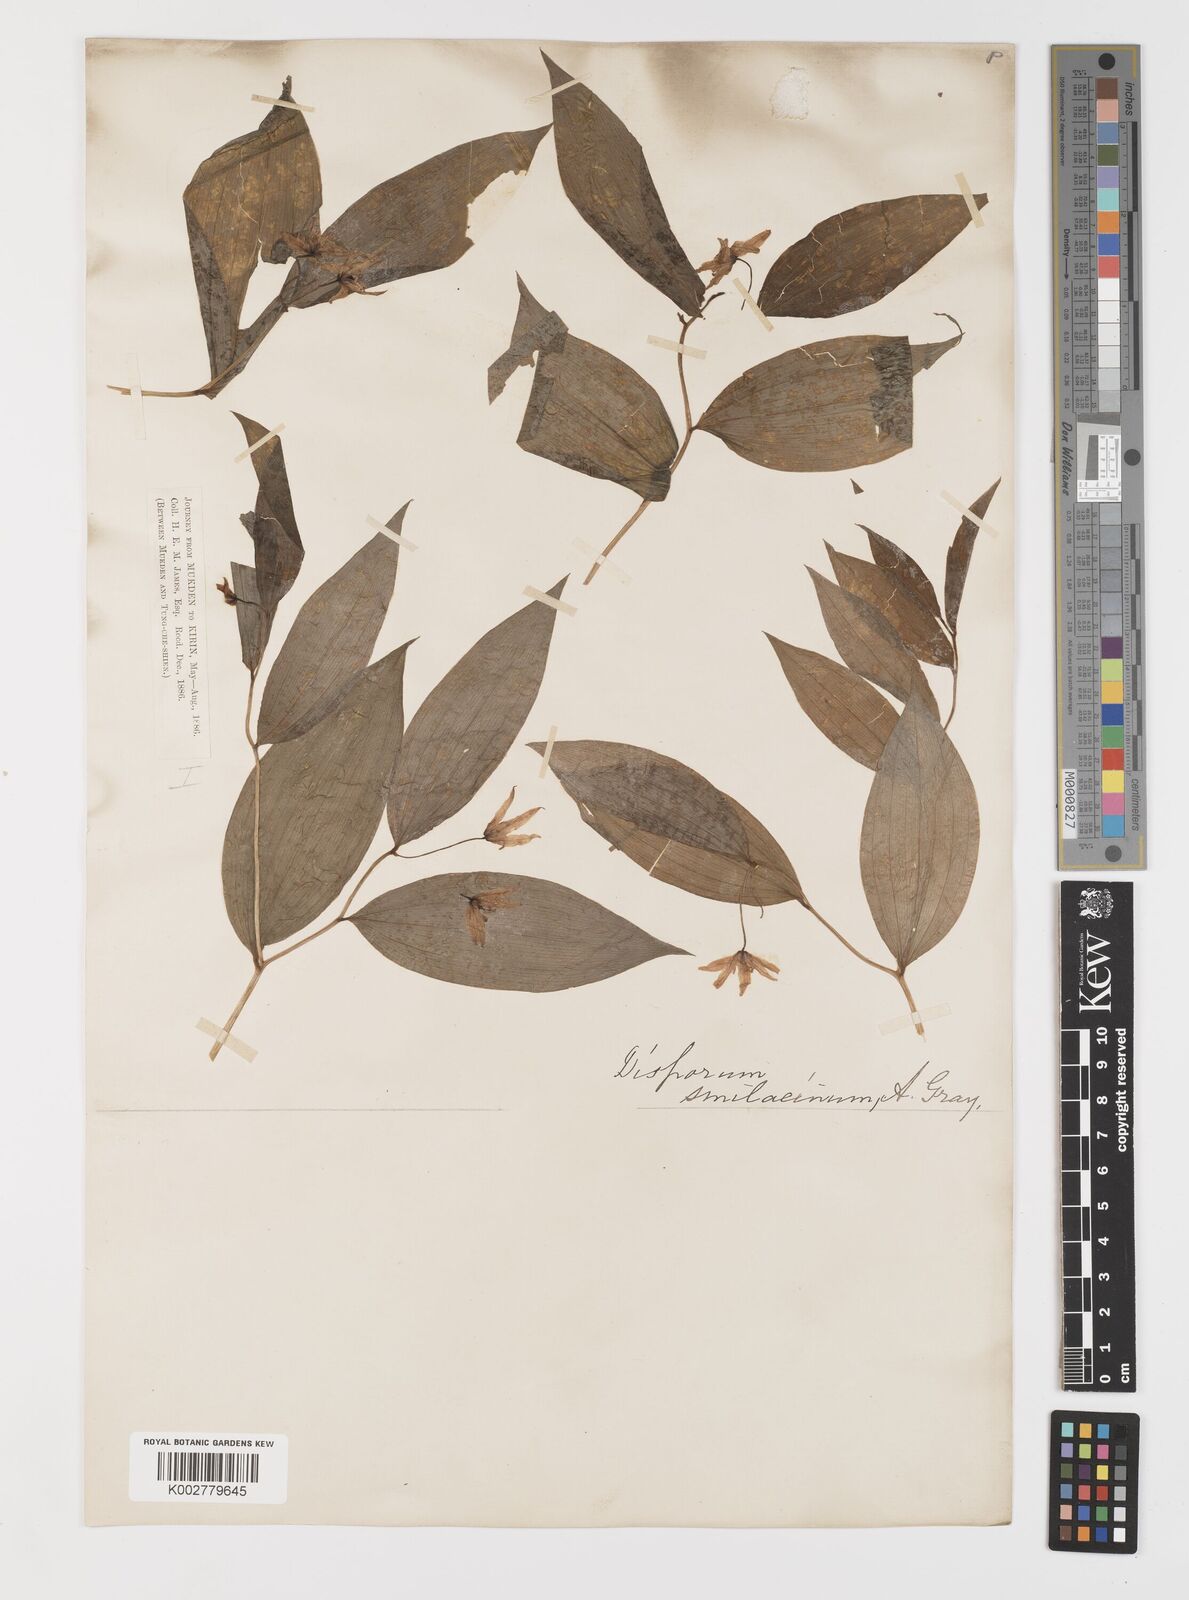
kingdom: Plantae
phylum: Tracheophyta
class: Liliopsida
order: Liliales
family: Colchicaceae
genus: Disporum
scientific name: Disporum viridescens
